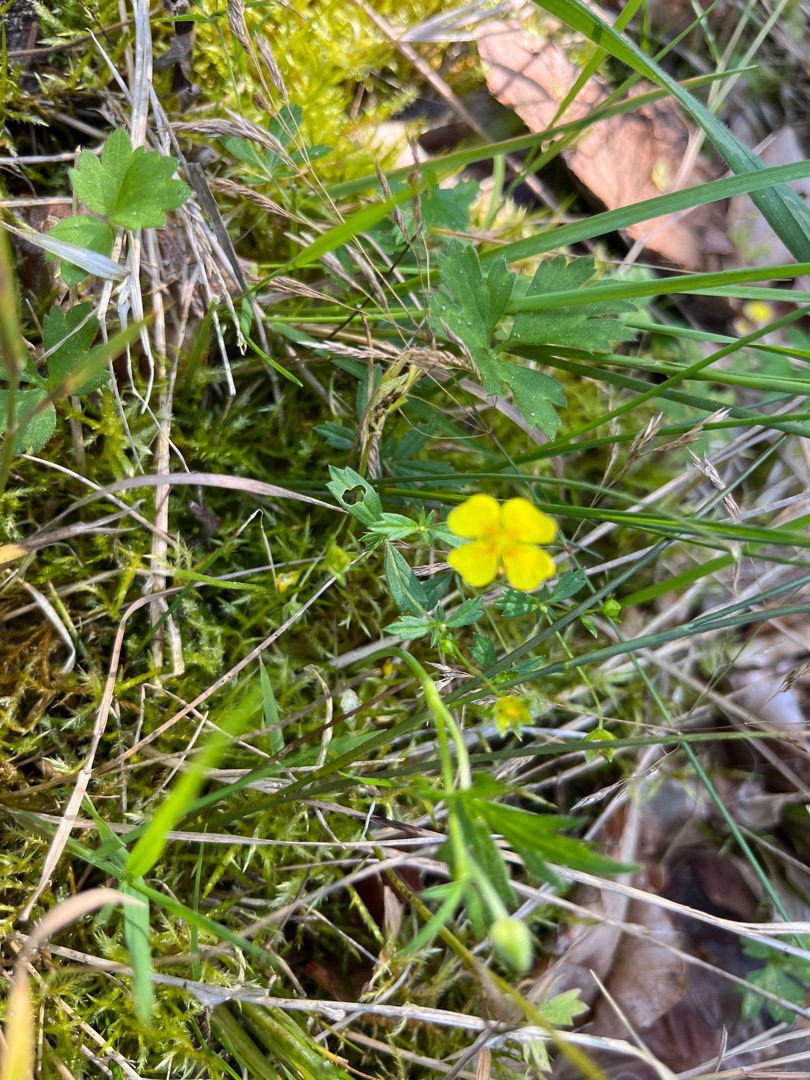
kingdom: Plantae
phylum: Tracheophyta
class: Magnoliopsida
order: Rosales
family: Rosaceae
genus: Potentilla
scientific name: Potentilla erecta
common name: Tormentil
